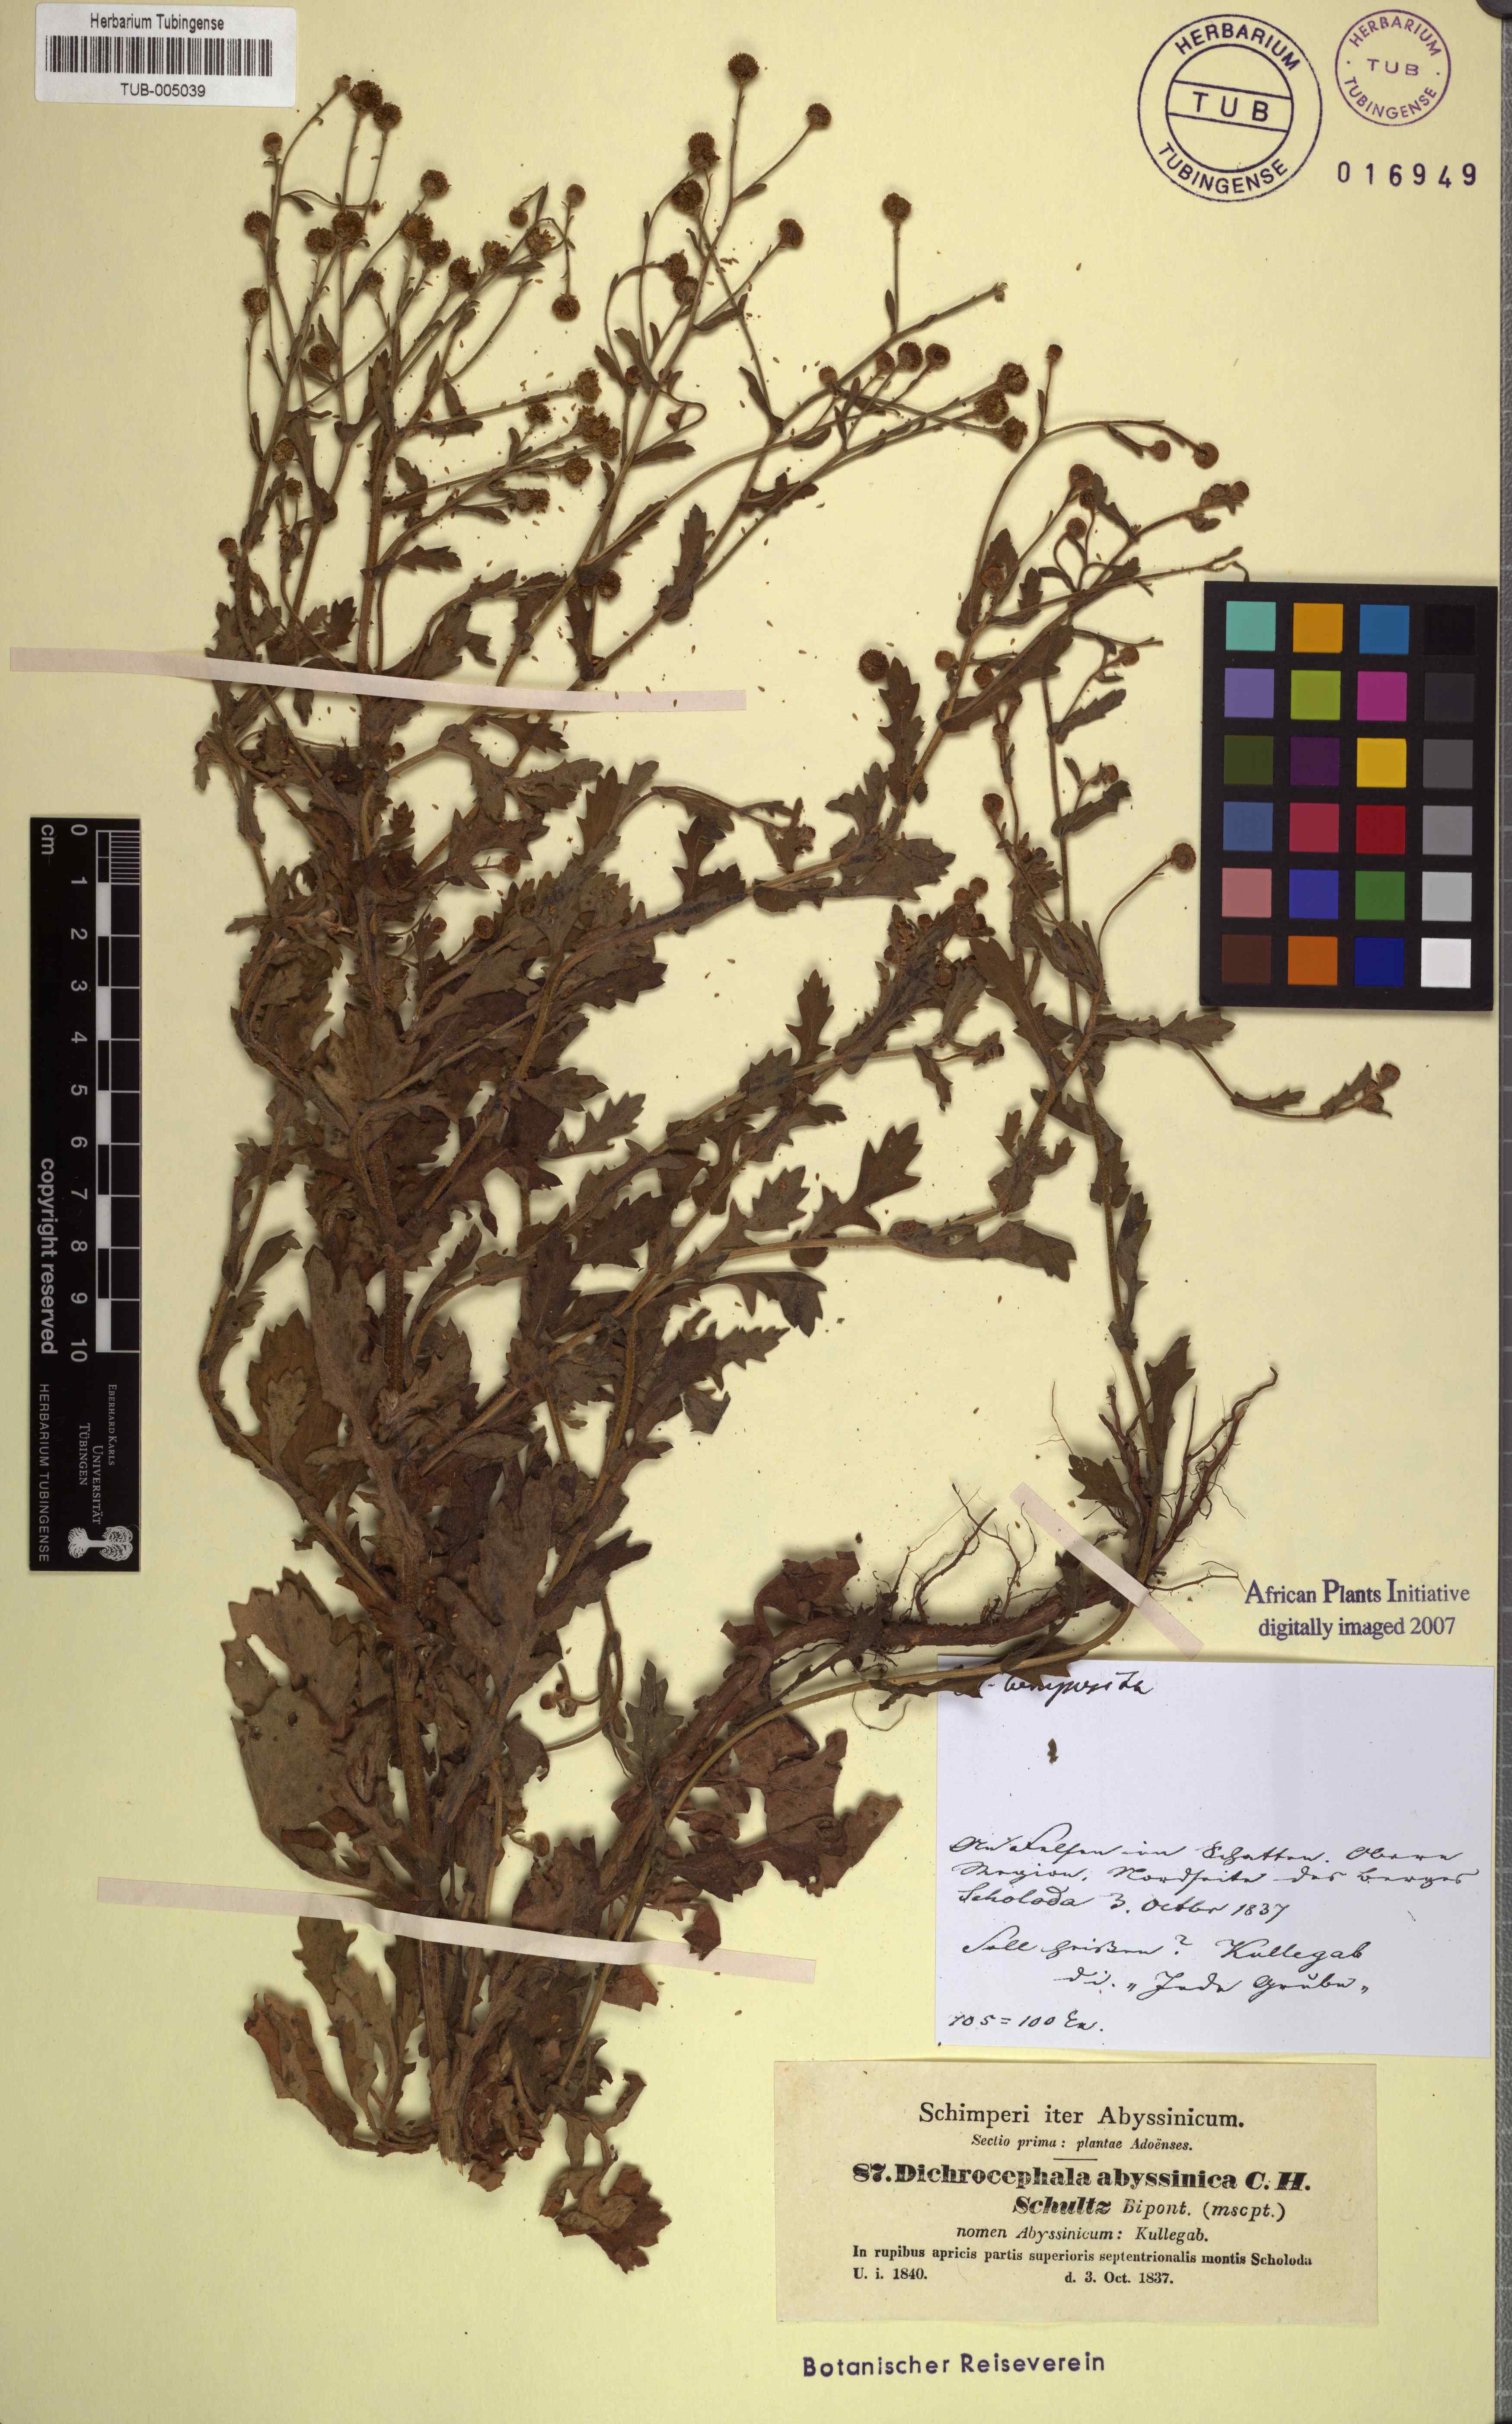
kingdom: Plantae
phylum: Tracheophyta
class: Magnoliopsida
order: Asterales
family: Asteraceae
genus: Dichrocephala
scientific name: Dichrocephala integrifolia
